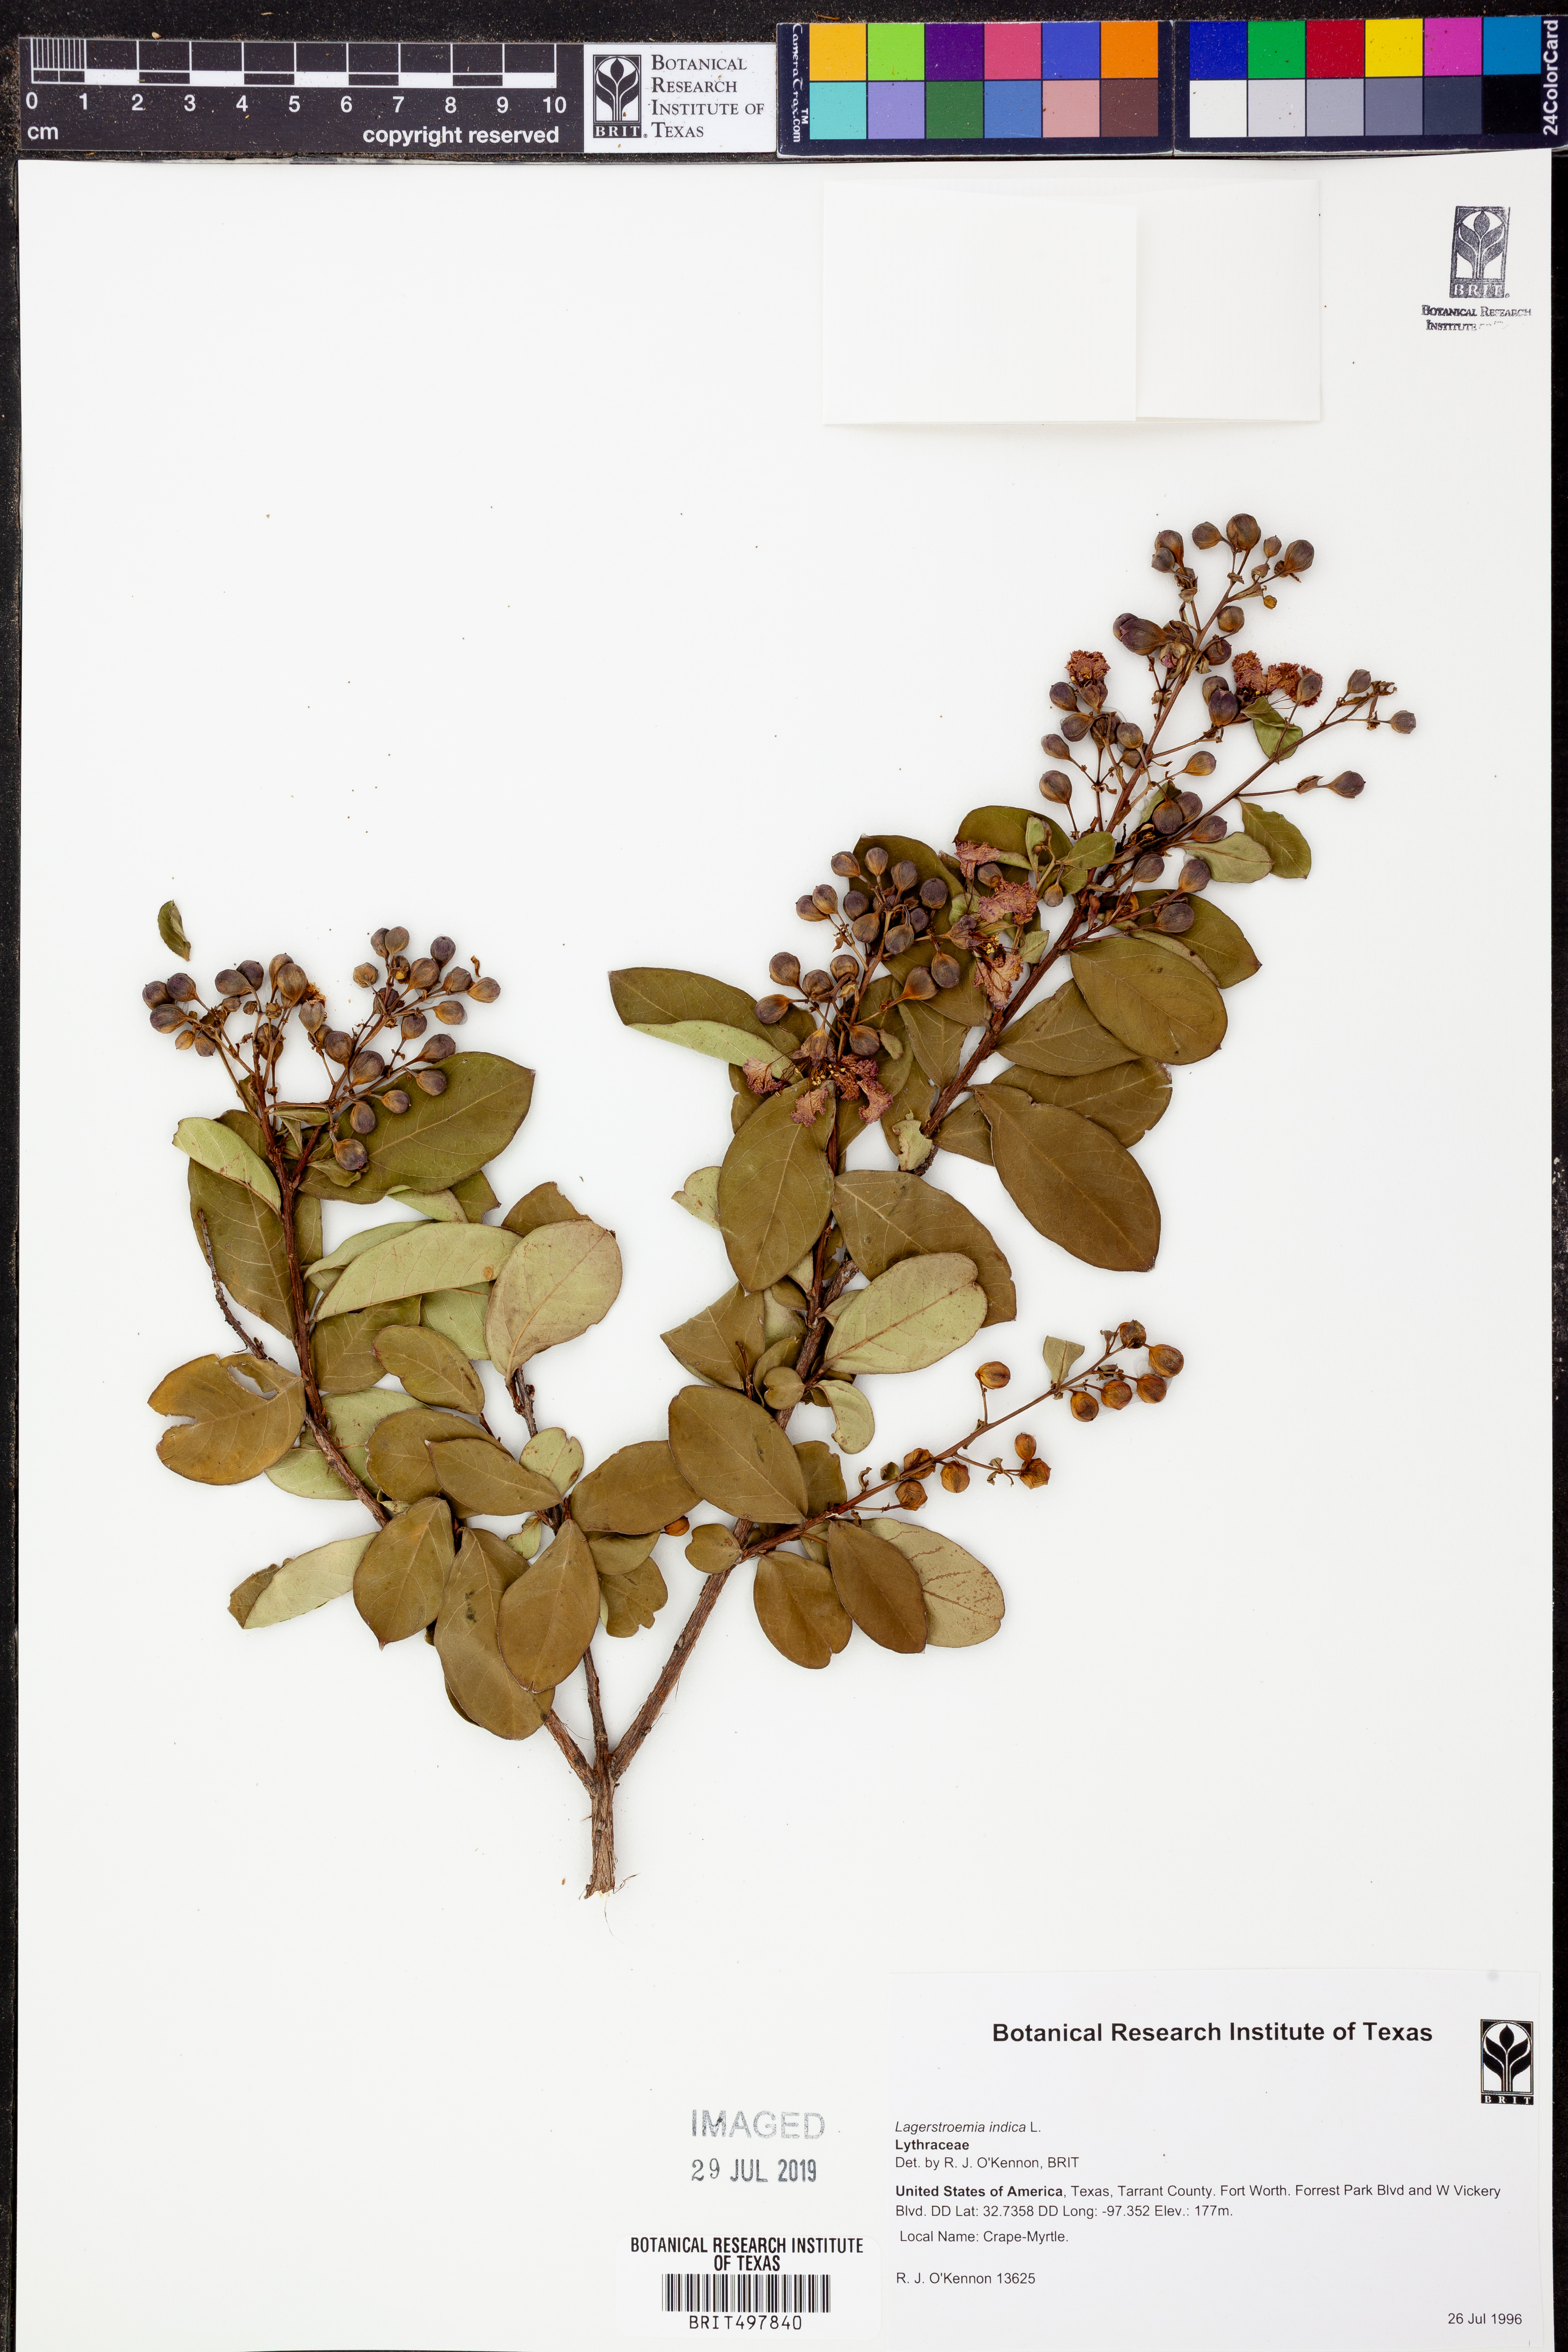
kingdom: Plantae
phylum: Tracheophyta
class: Magnoliopsida
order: Myrtales
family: Lythraceae
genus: Lagerstroemia
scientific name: Lagerstroemia indica
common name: Crape-myrtle
